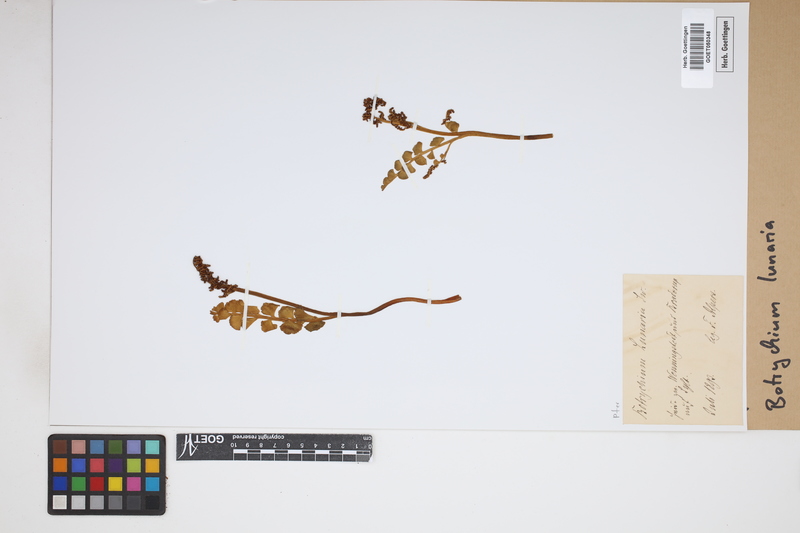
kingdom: Plantae
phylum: Tracheophyta
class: Polypodiopsida
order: Ophioglossales
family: Ophioglossaceae
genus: Botrychium
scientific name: Botrychium lunaria
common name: Moonwort
